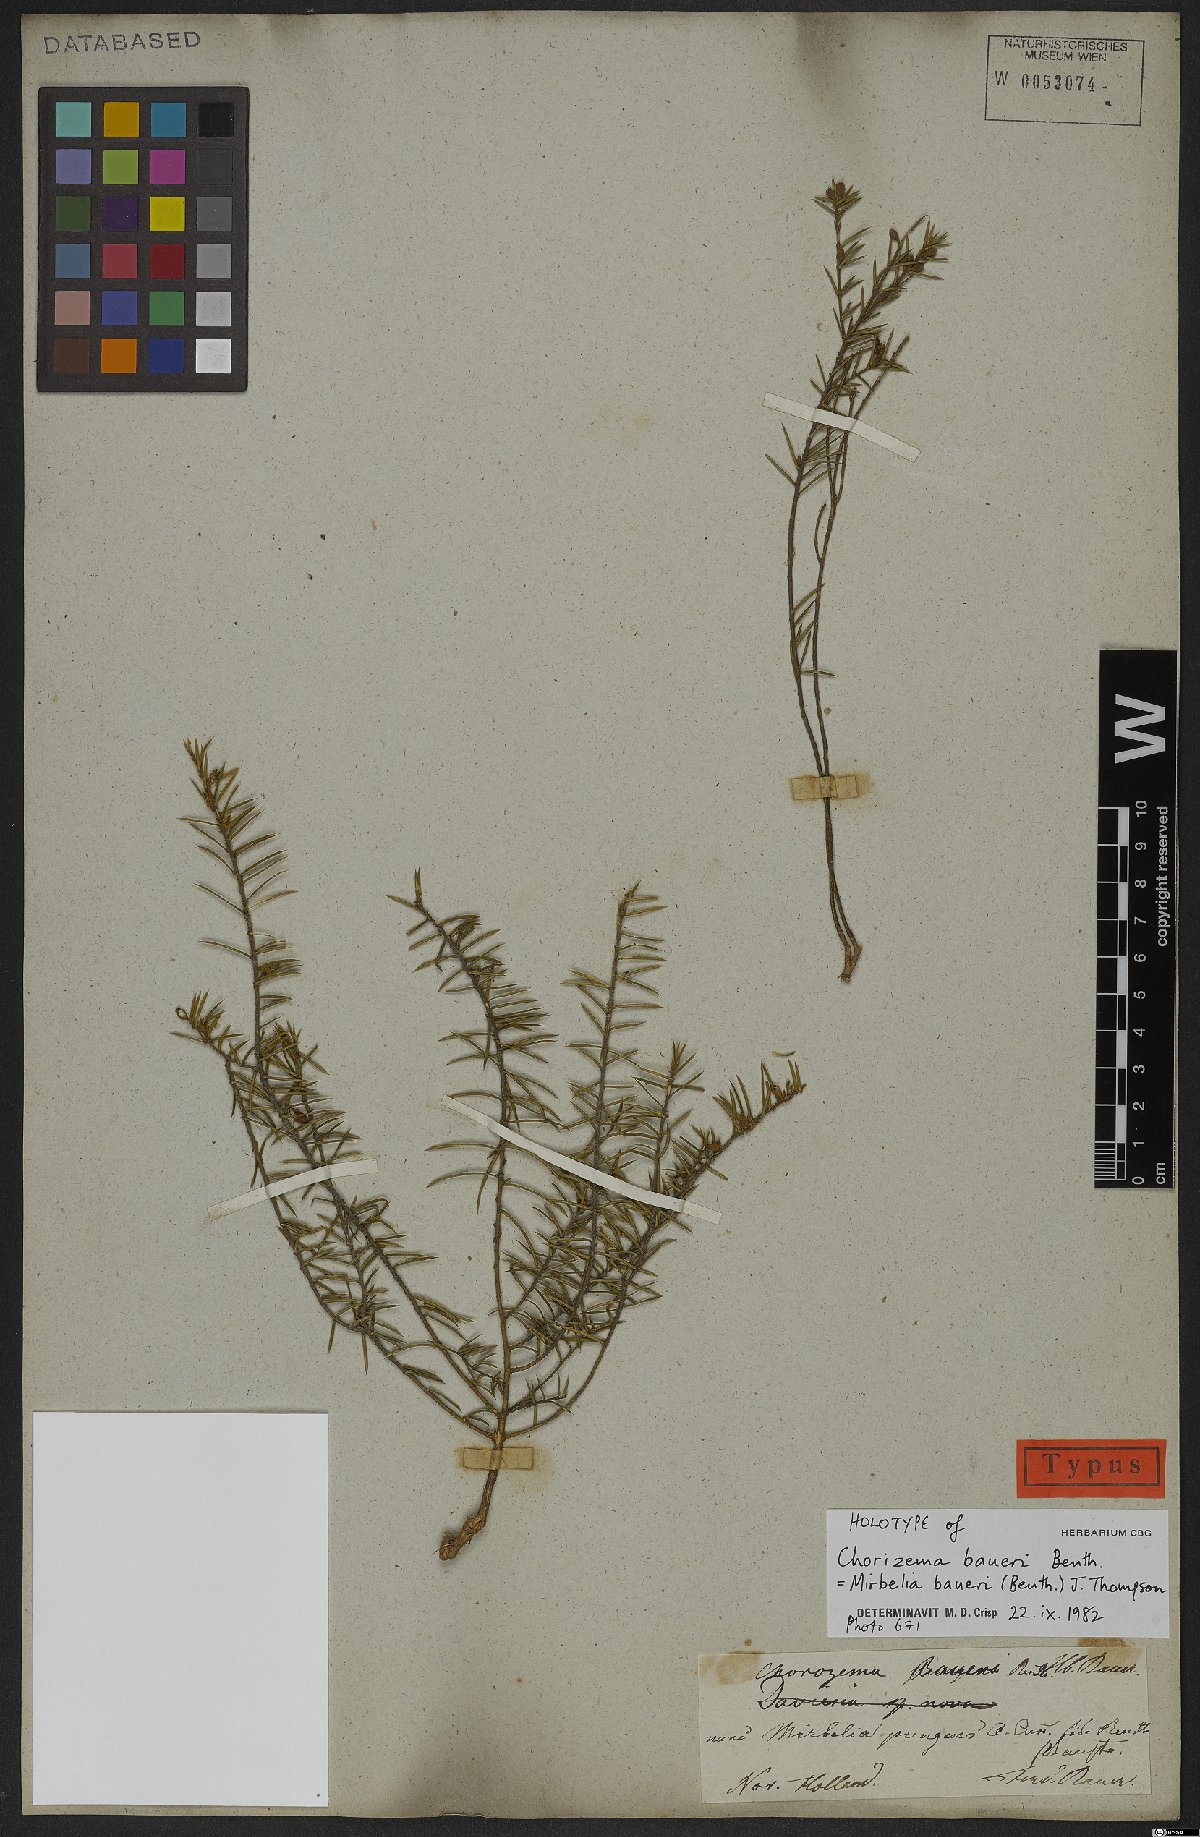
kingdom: Plantae
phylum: Tracheophyta
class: Magnoliopsida
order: Fabales
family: Fabaceae
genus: Mirbelia
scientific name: Mirbelia baueri
